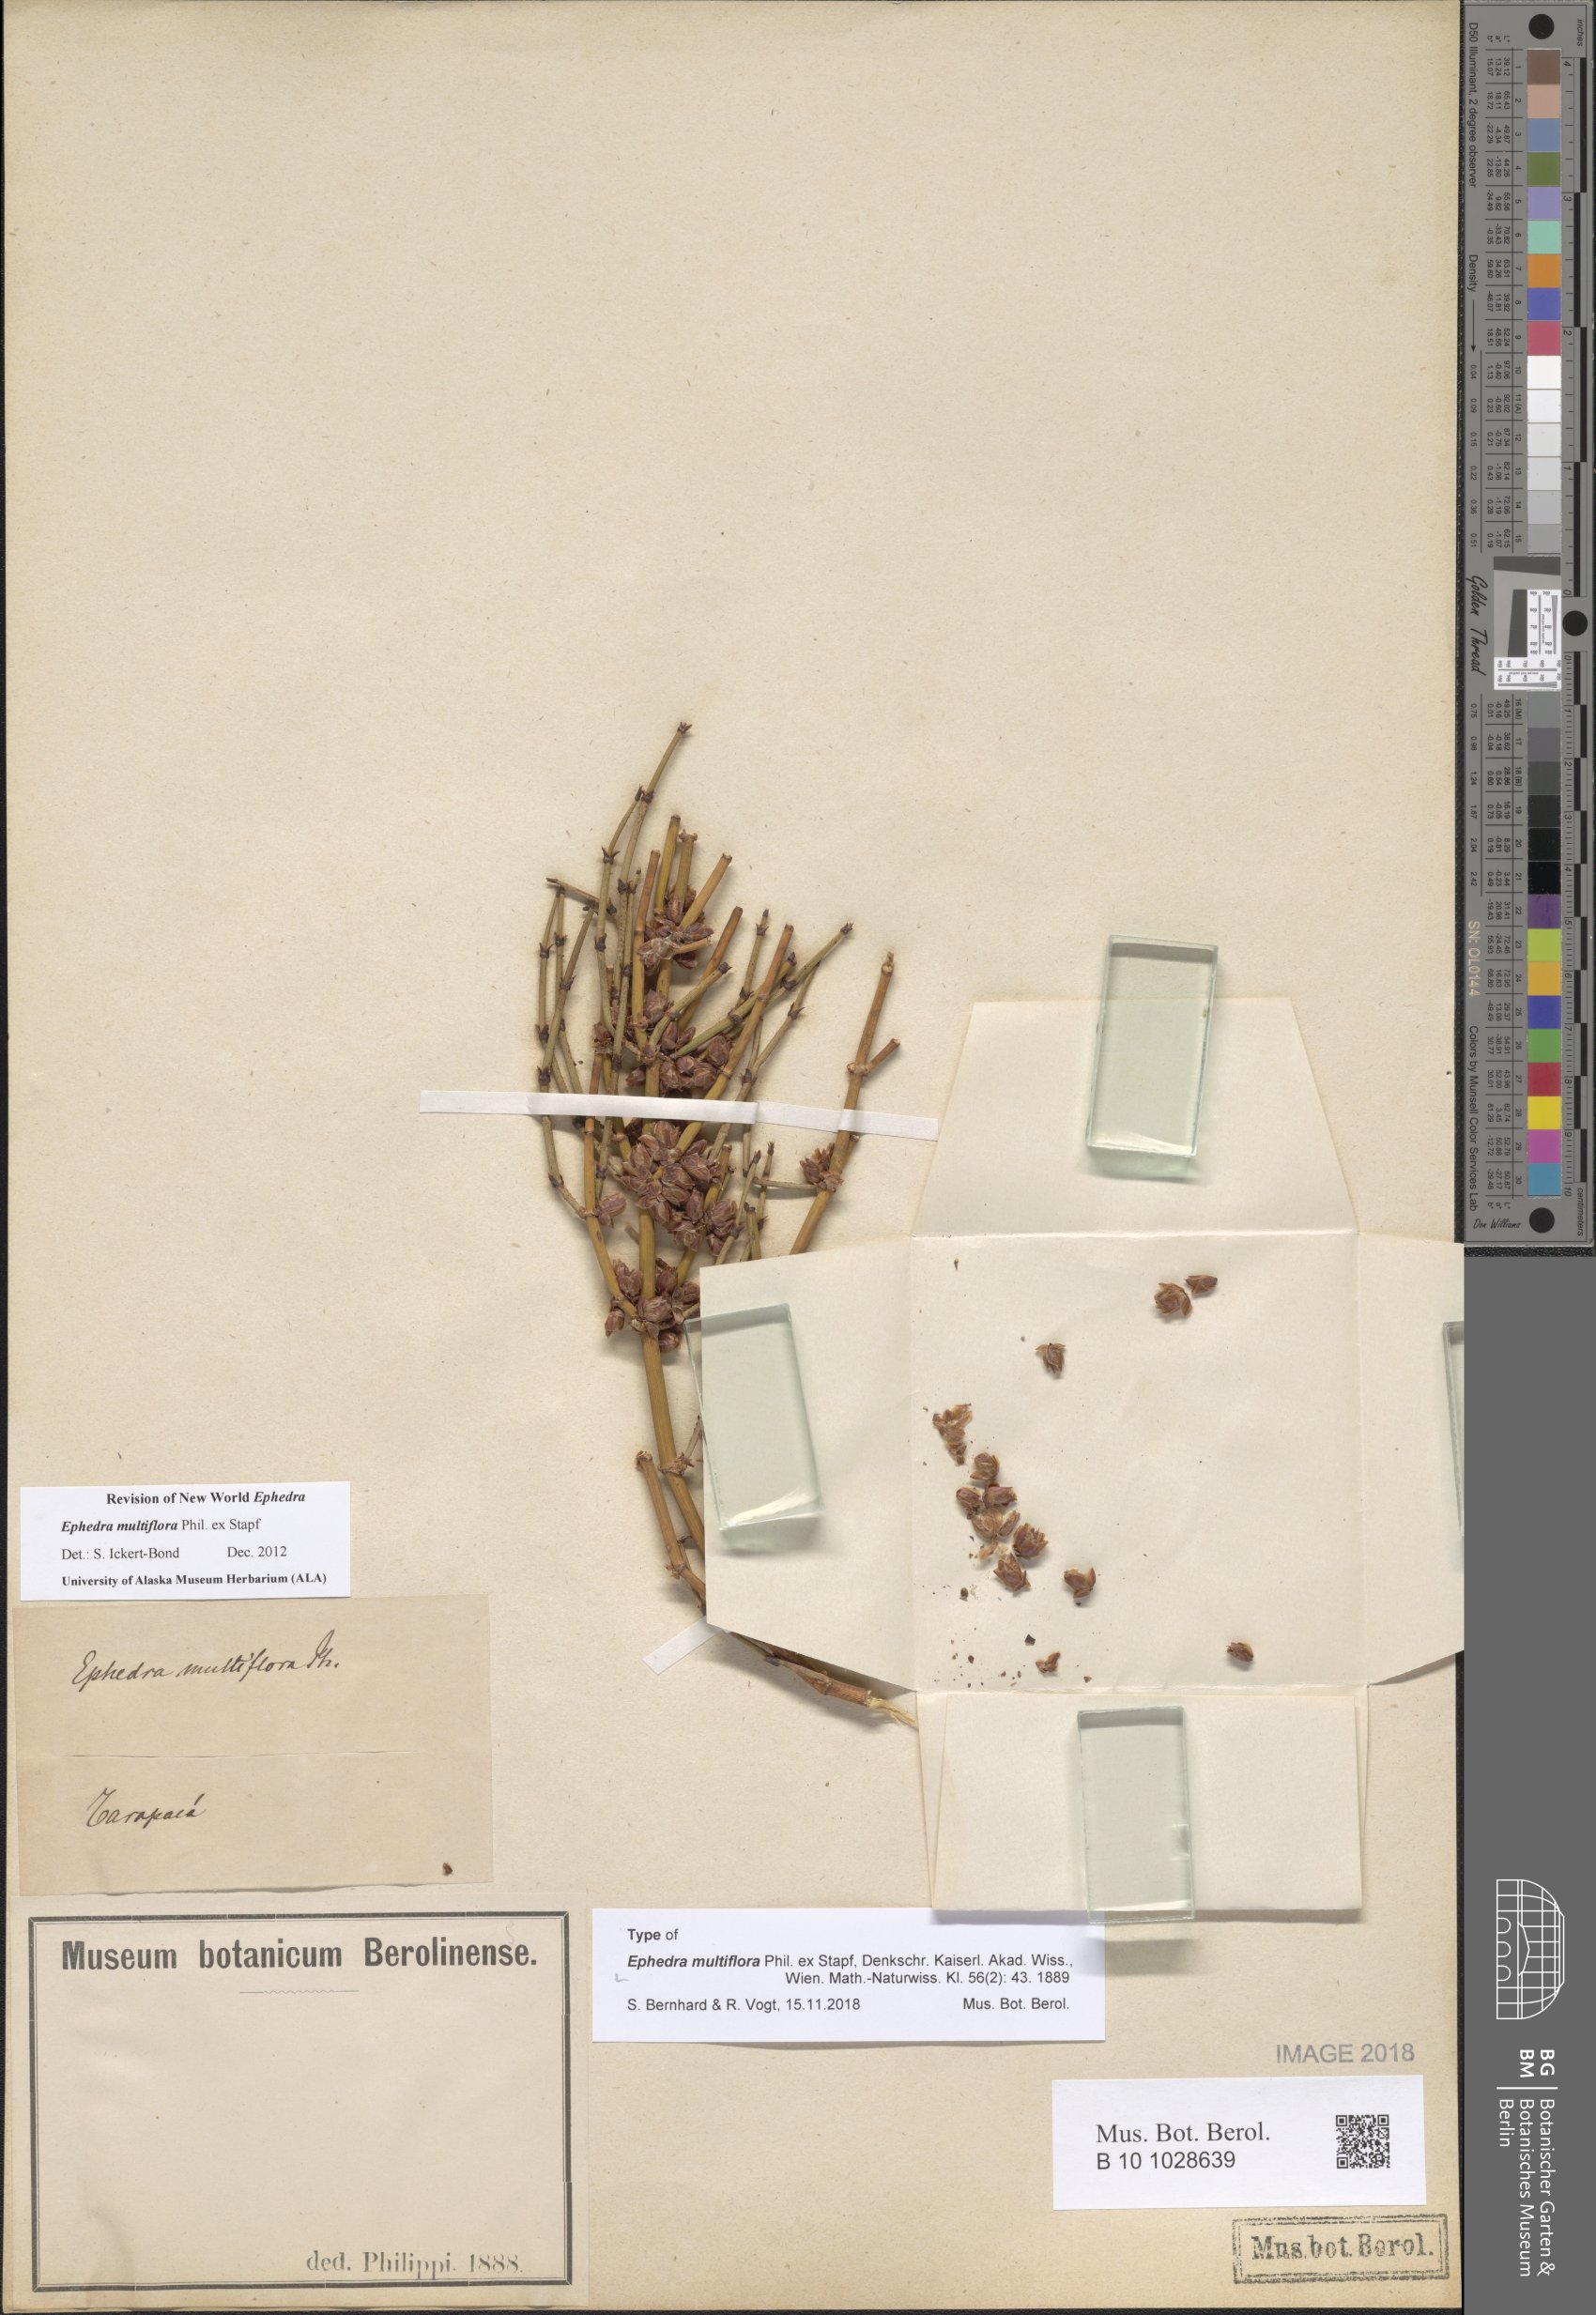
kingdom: Plantae
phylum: Tracheophyta
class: Gnetopsida
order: Ephedrales
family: Ephedraceae
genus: Ephedra
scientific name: Ephedra multiflora
